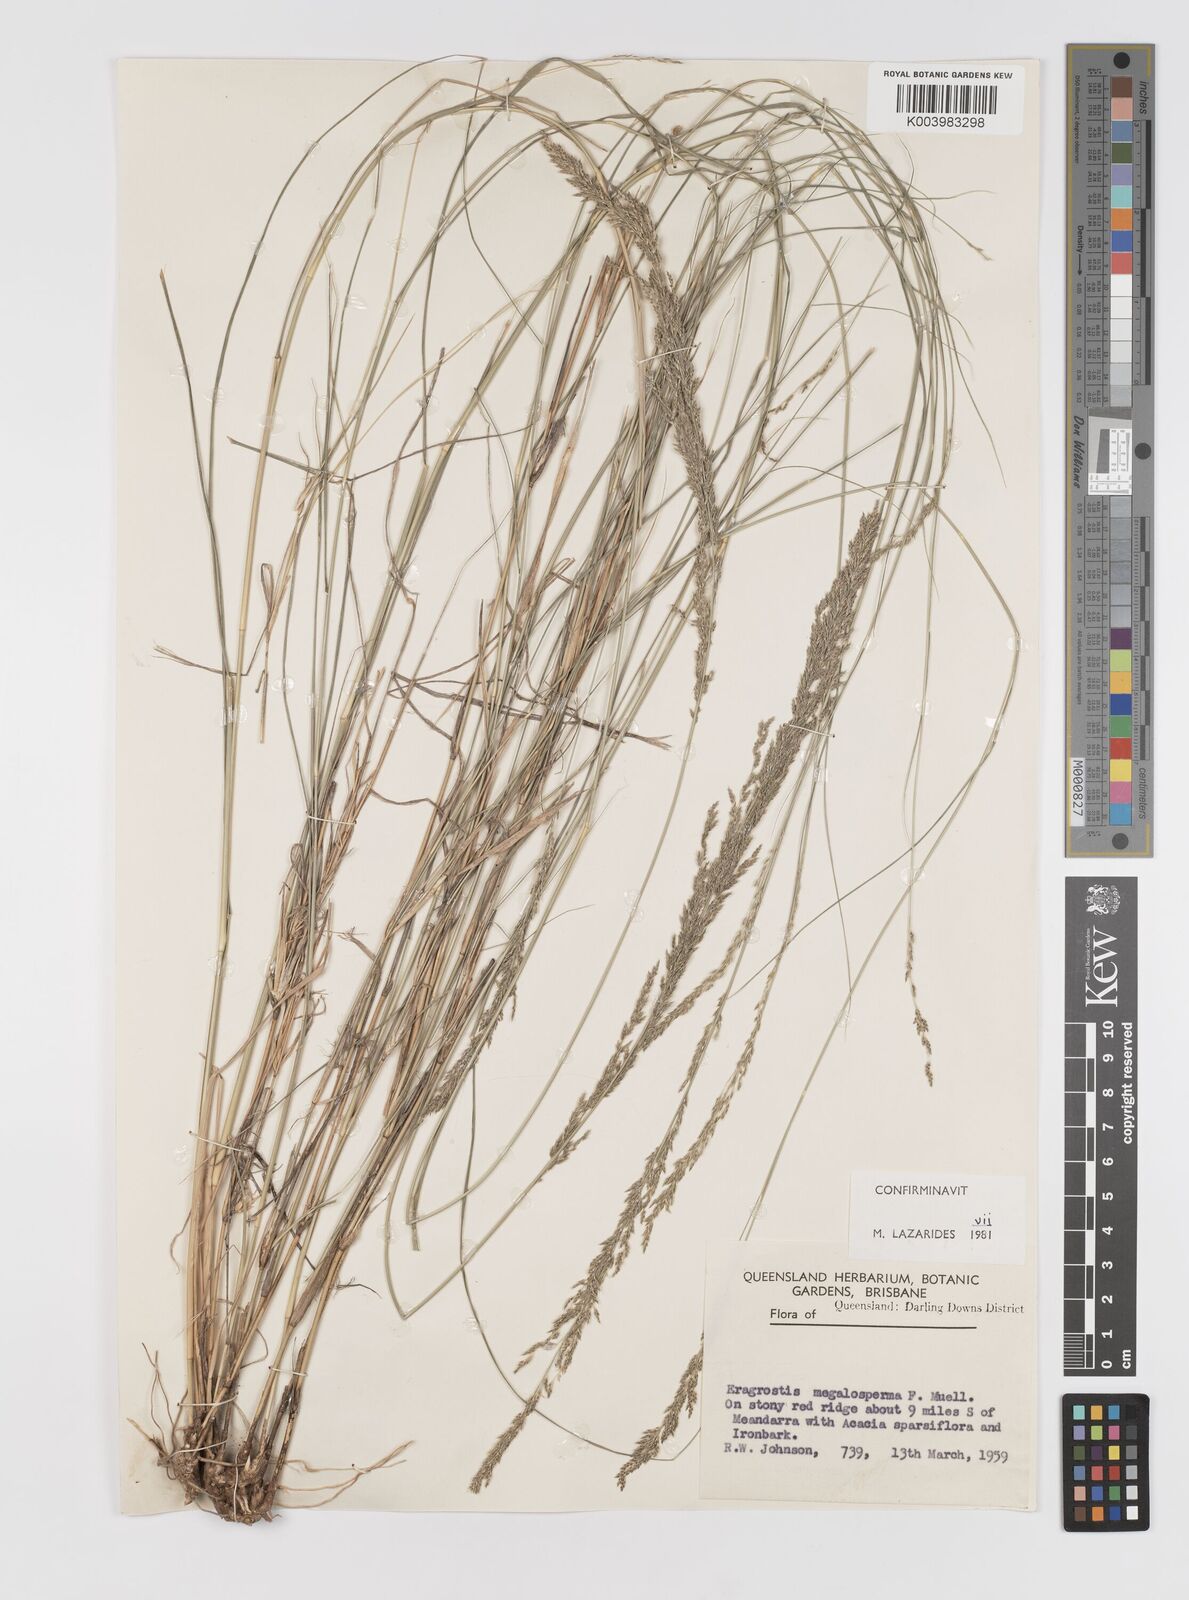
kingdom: Plantae
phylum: Tracheophyta
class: Liliopsida
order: Poales
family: Poaceae
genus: Sporobolus
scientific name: Sporobolus megalospermus
